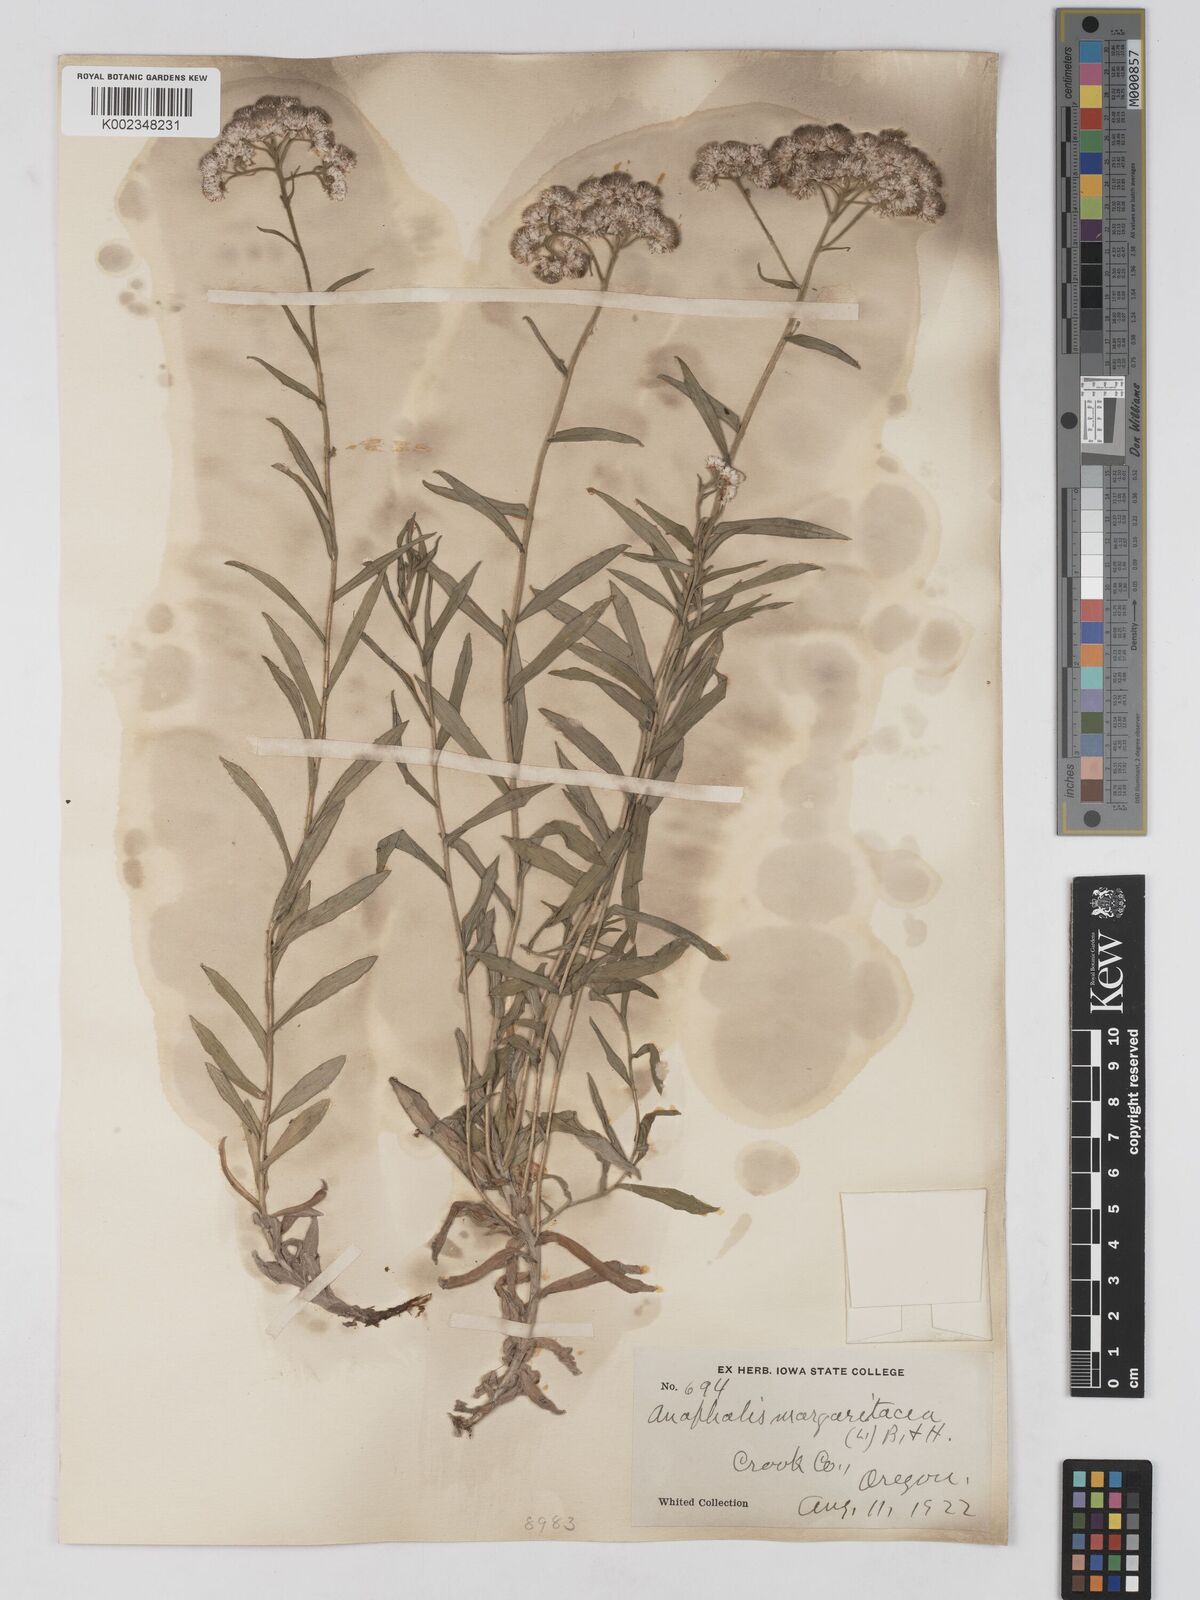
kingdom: Plantae
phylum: Tracheophyta
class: Magnoliopsida
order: Asterales
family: Asteraceae
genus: Anaphalis
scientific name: Anaphalis margaritacea
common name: Pearly everlasting
